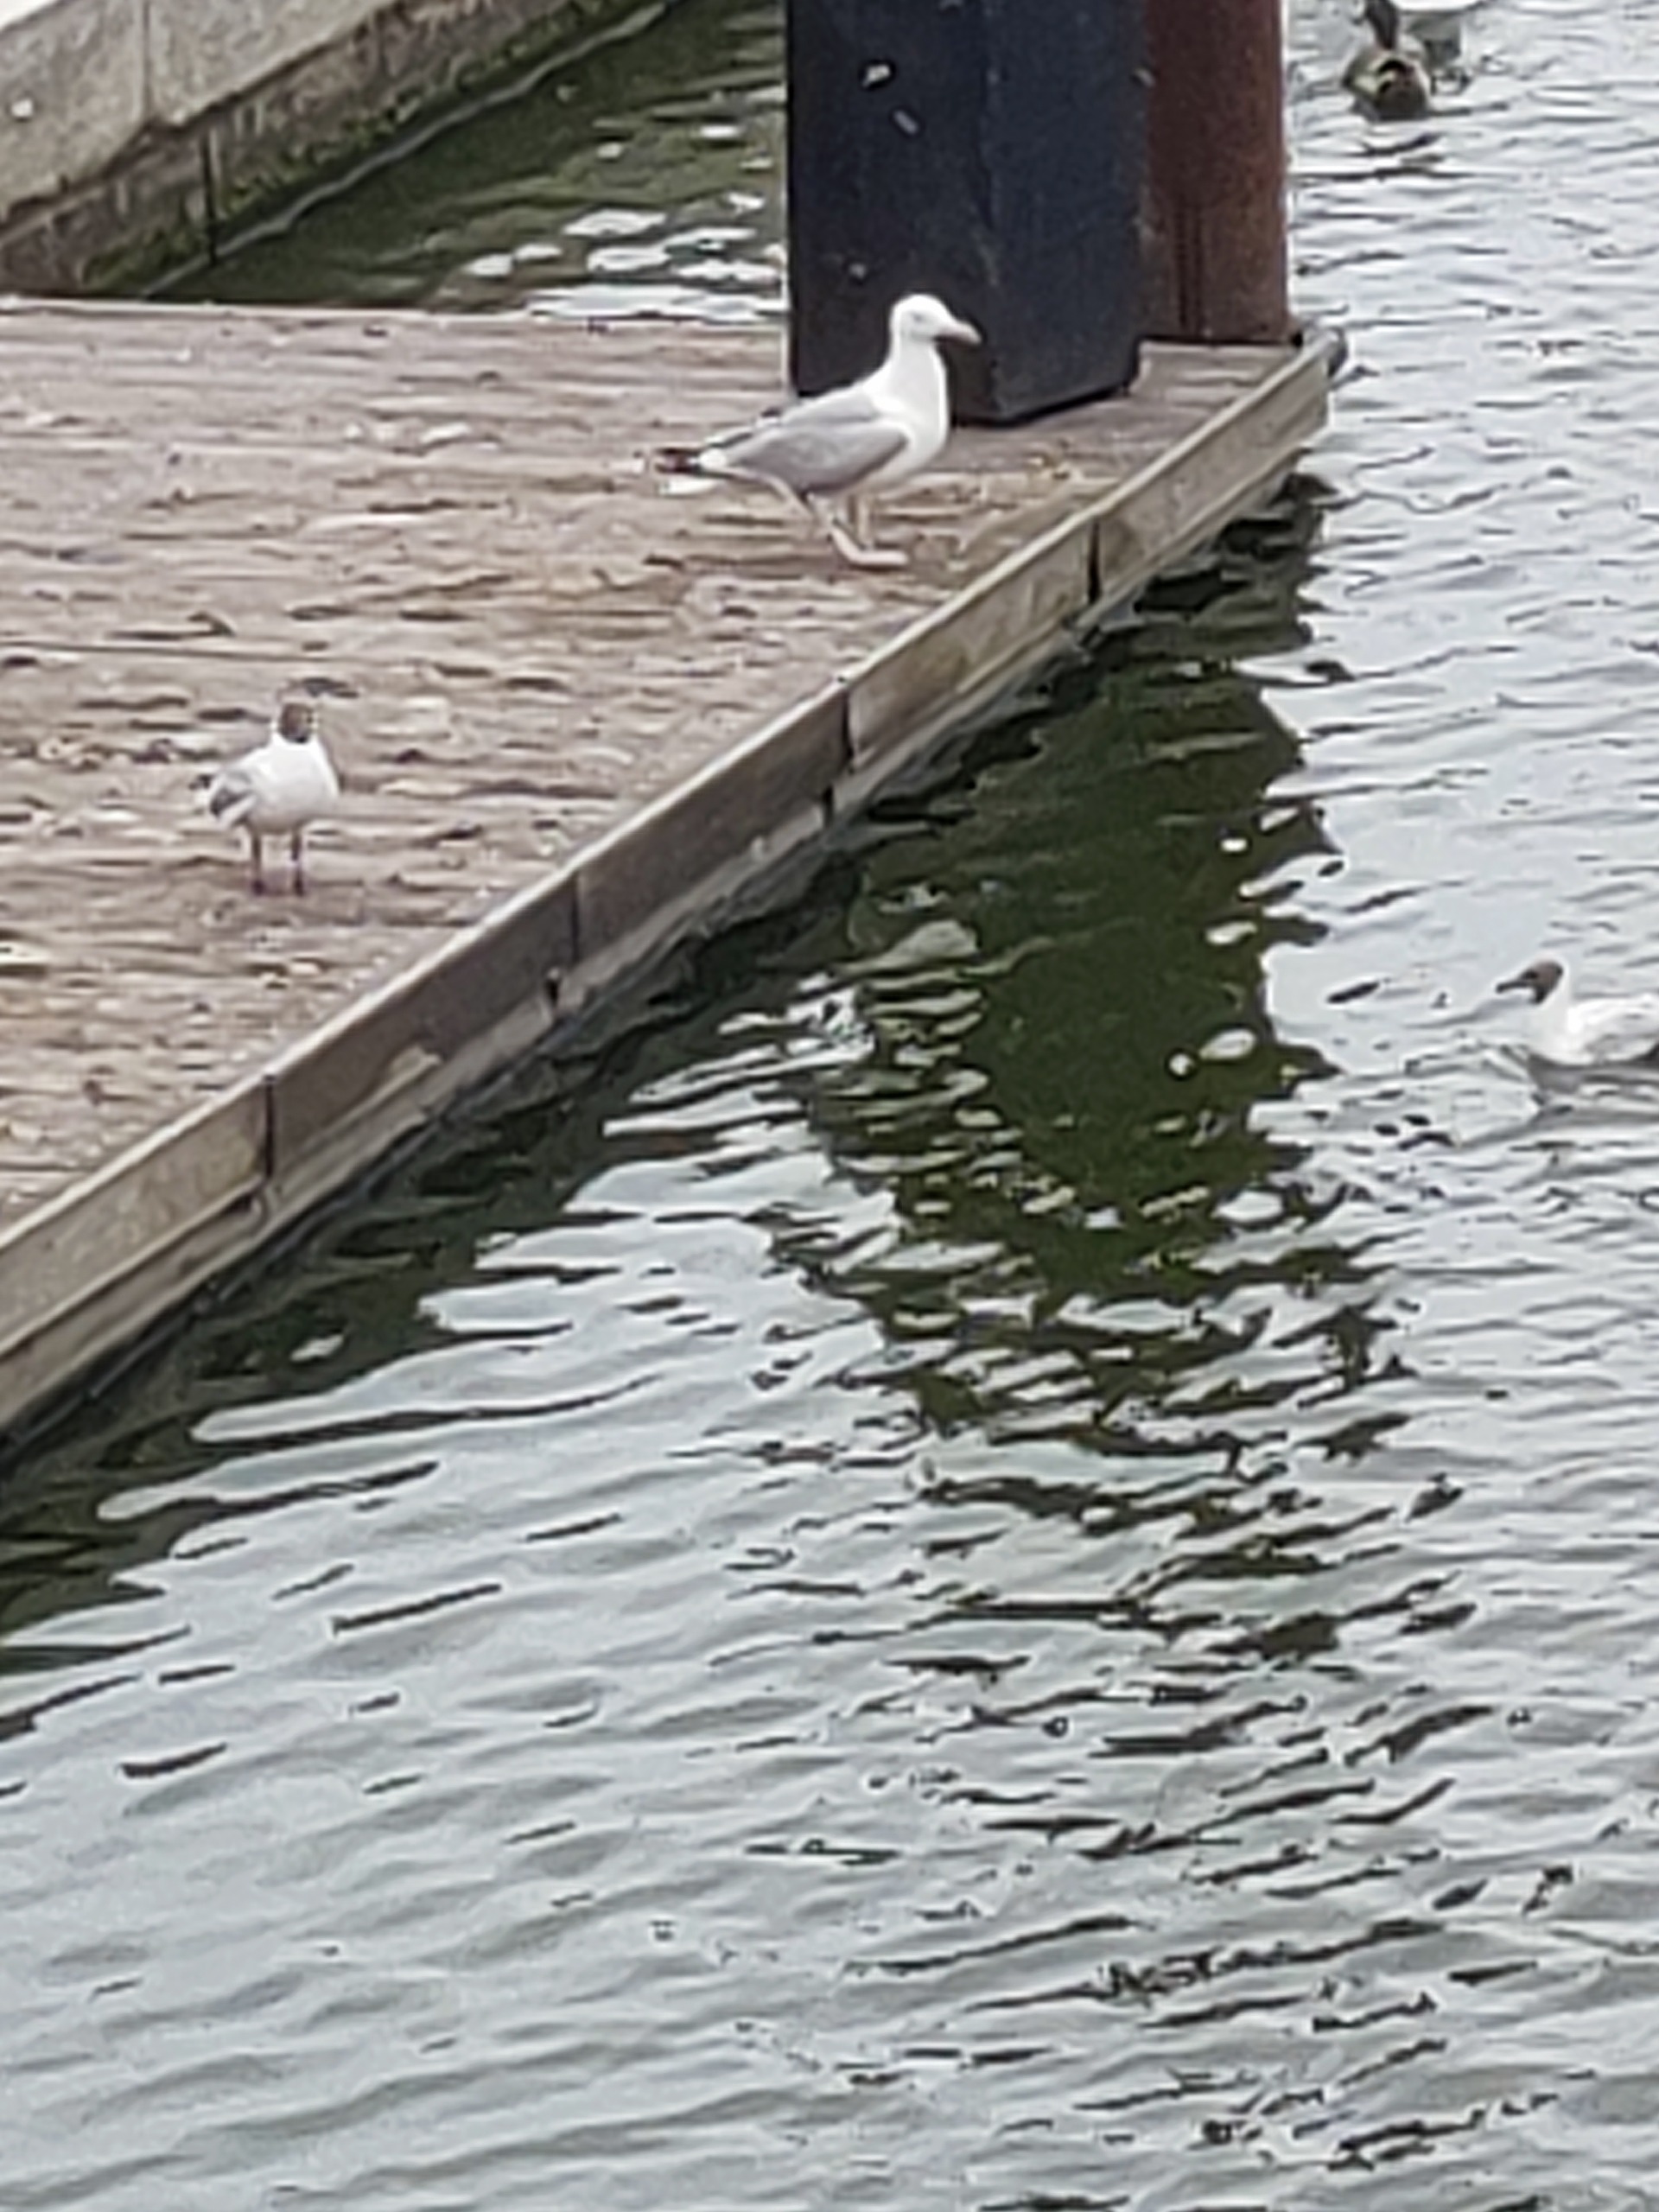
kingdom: Animalia
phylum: Chordata
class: Aves
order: Charadriiformes
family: Laridae
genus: Larus
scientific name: Larus argentatus
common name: Sølvmåge
